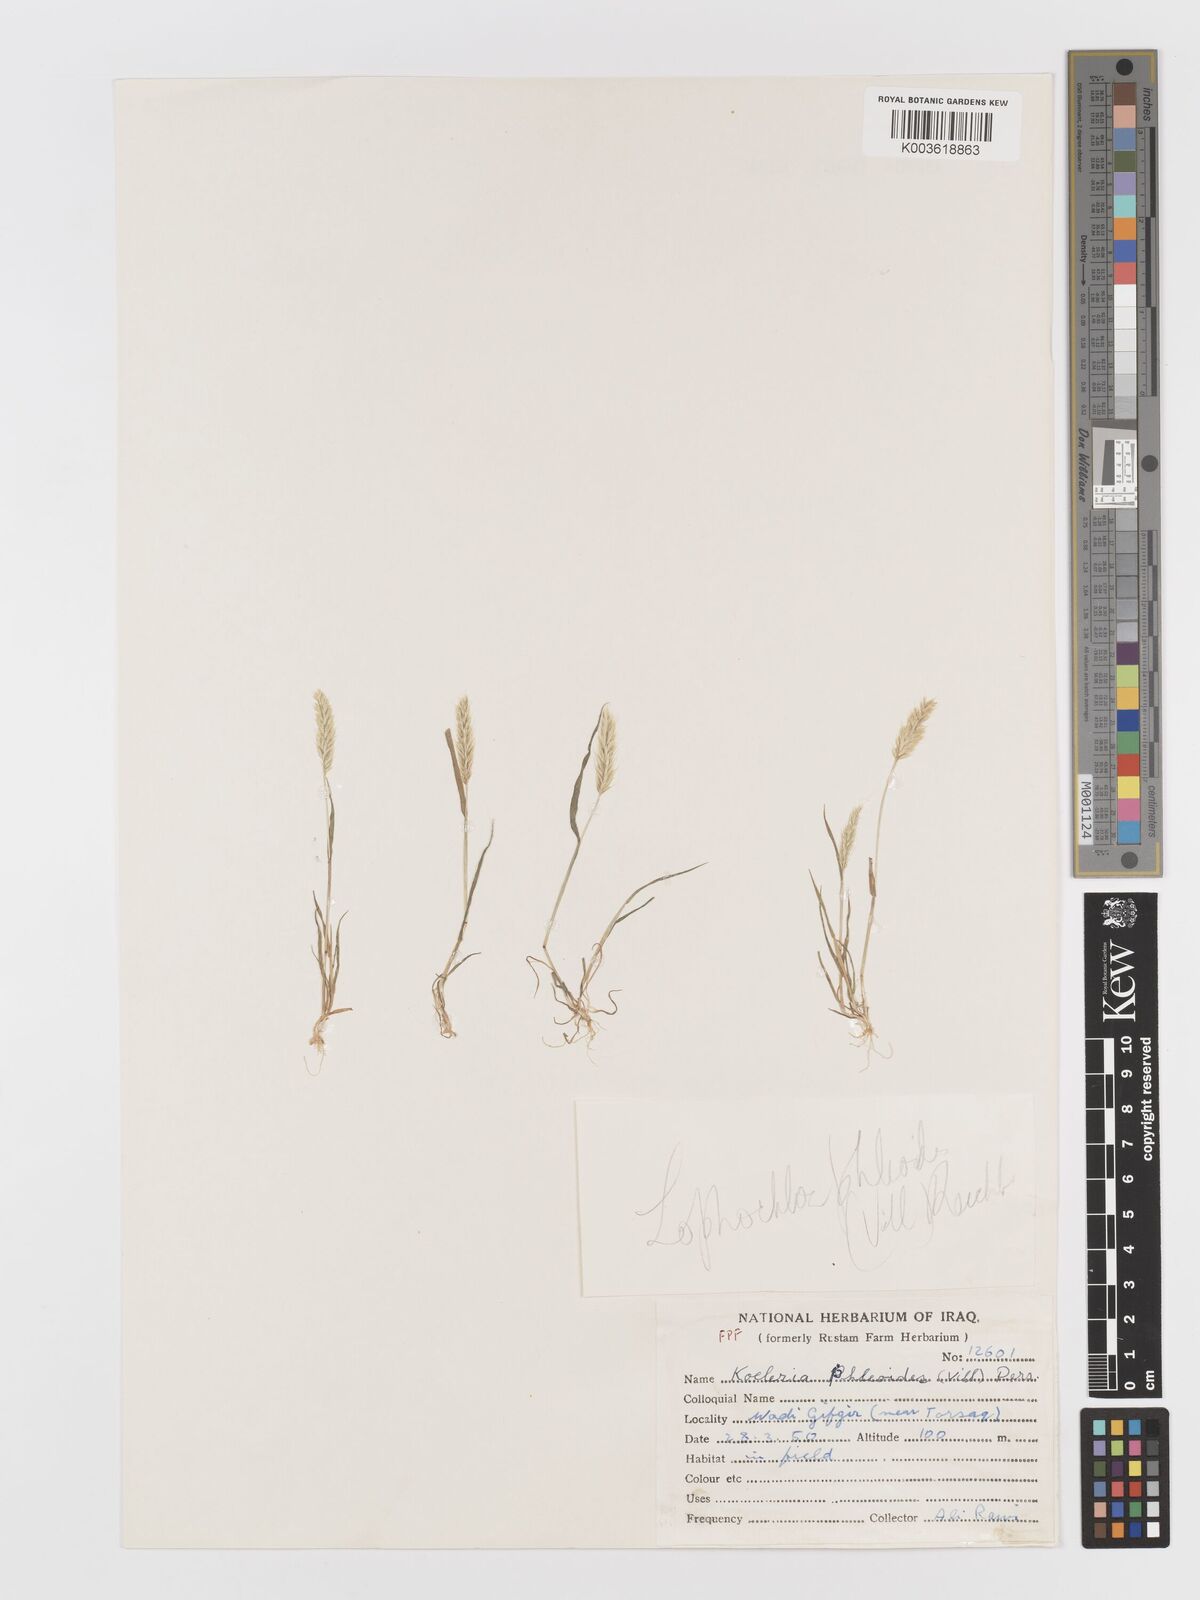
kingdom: Plantae
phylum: Tracheophyta
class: Liliopsida
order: Poales
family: Poaceae
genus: Rostraria
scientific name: Rostraria cristata
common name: Mediterranean hair-grass
